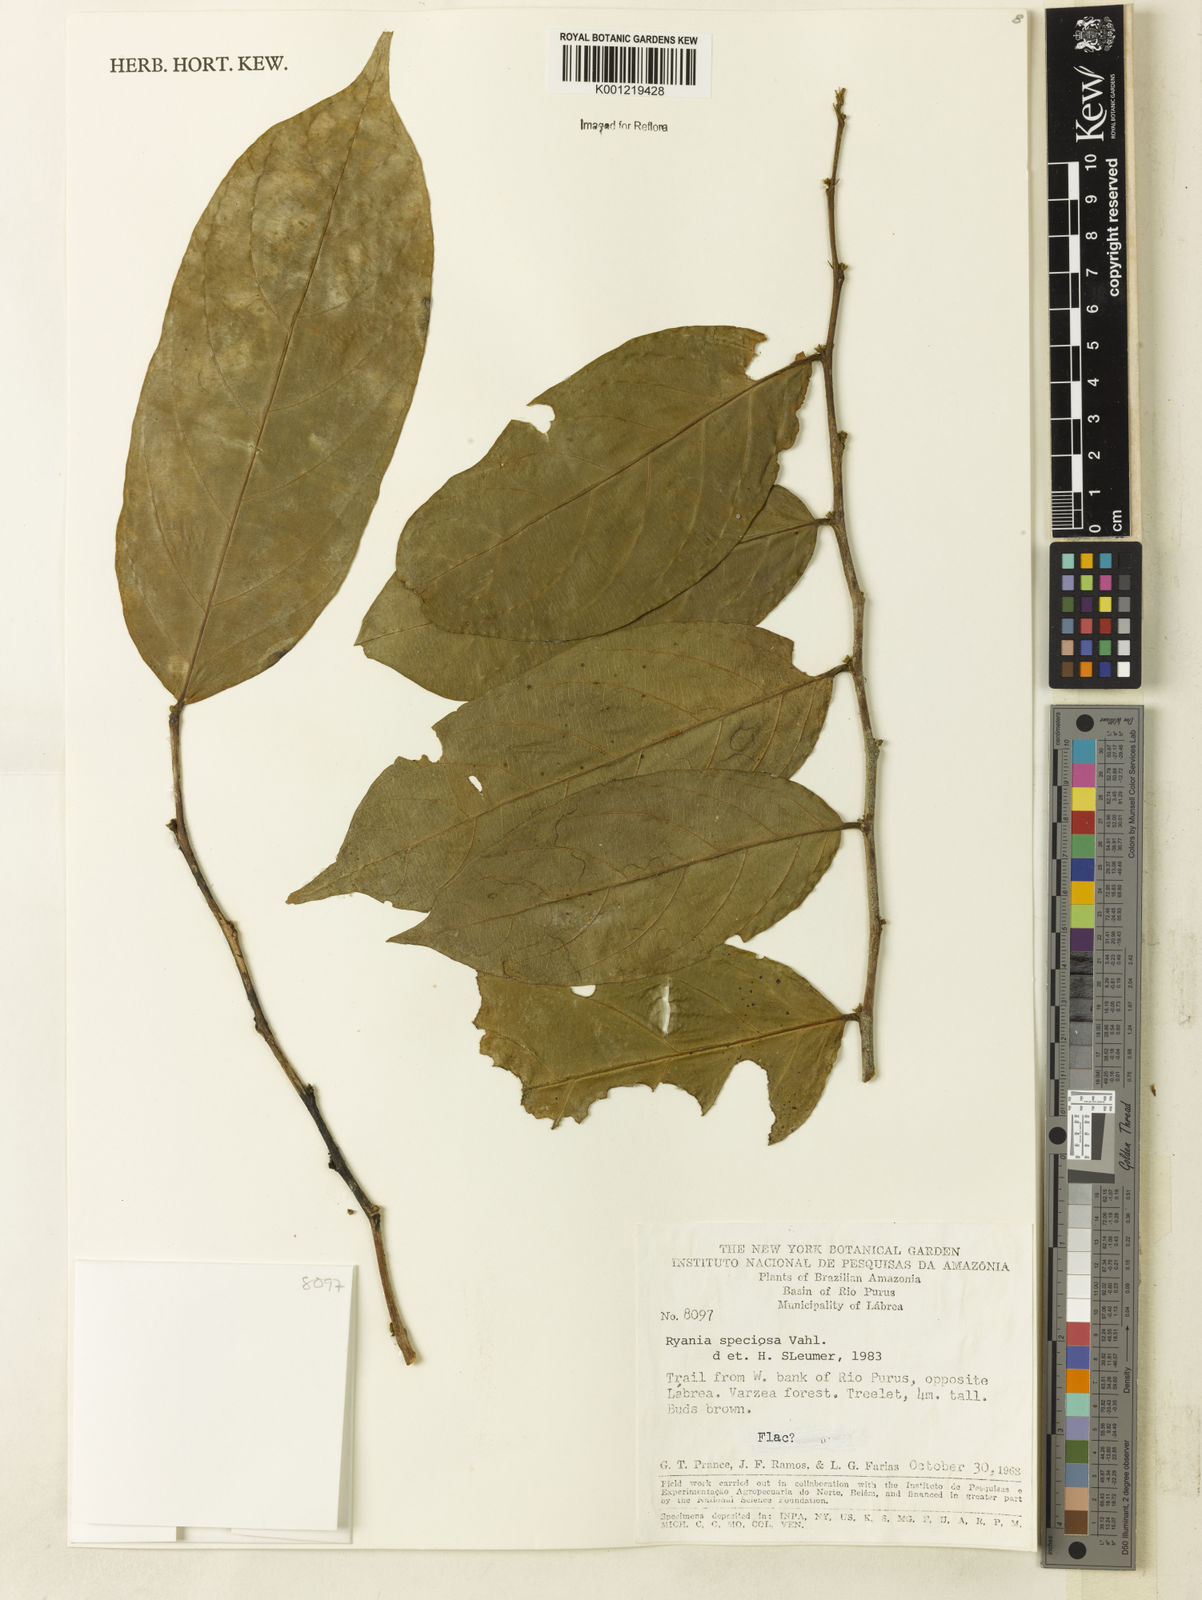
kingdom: Plantae
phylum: Tracheophyta
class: Magnoliopsida
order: Malpighiales
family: Salicaceae
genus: Ryania
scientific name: Ryania angustifolia
